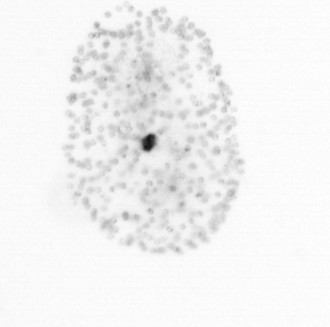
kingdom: Chromista
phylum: Ochrophyta
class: Bacillariophyceae
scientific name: Bacillariophyceae
